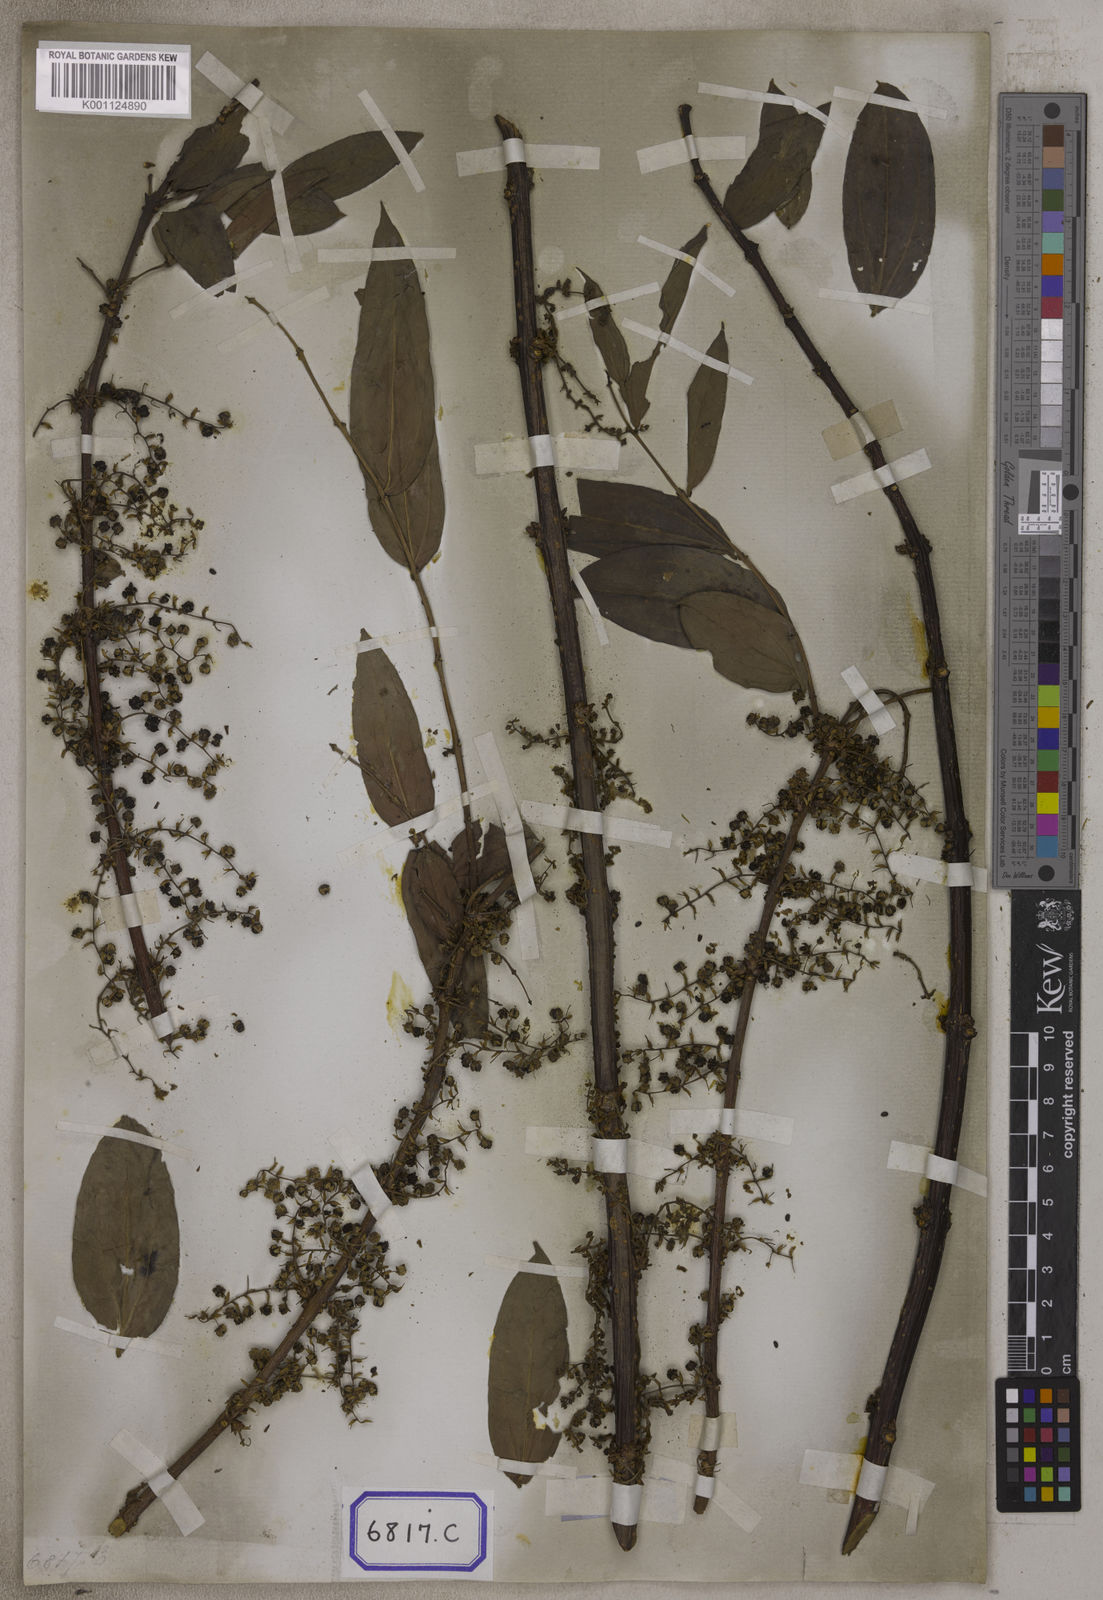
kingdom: Plantae
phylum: Tracheophyta
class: Magnoliopsida
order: Cucurbitales
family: Coriariaceae
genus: Coriaria
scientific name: Coriaria
